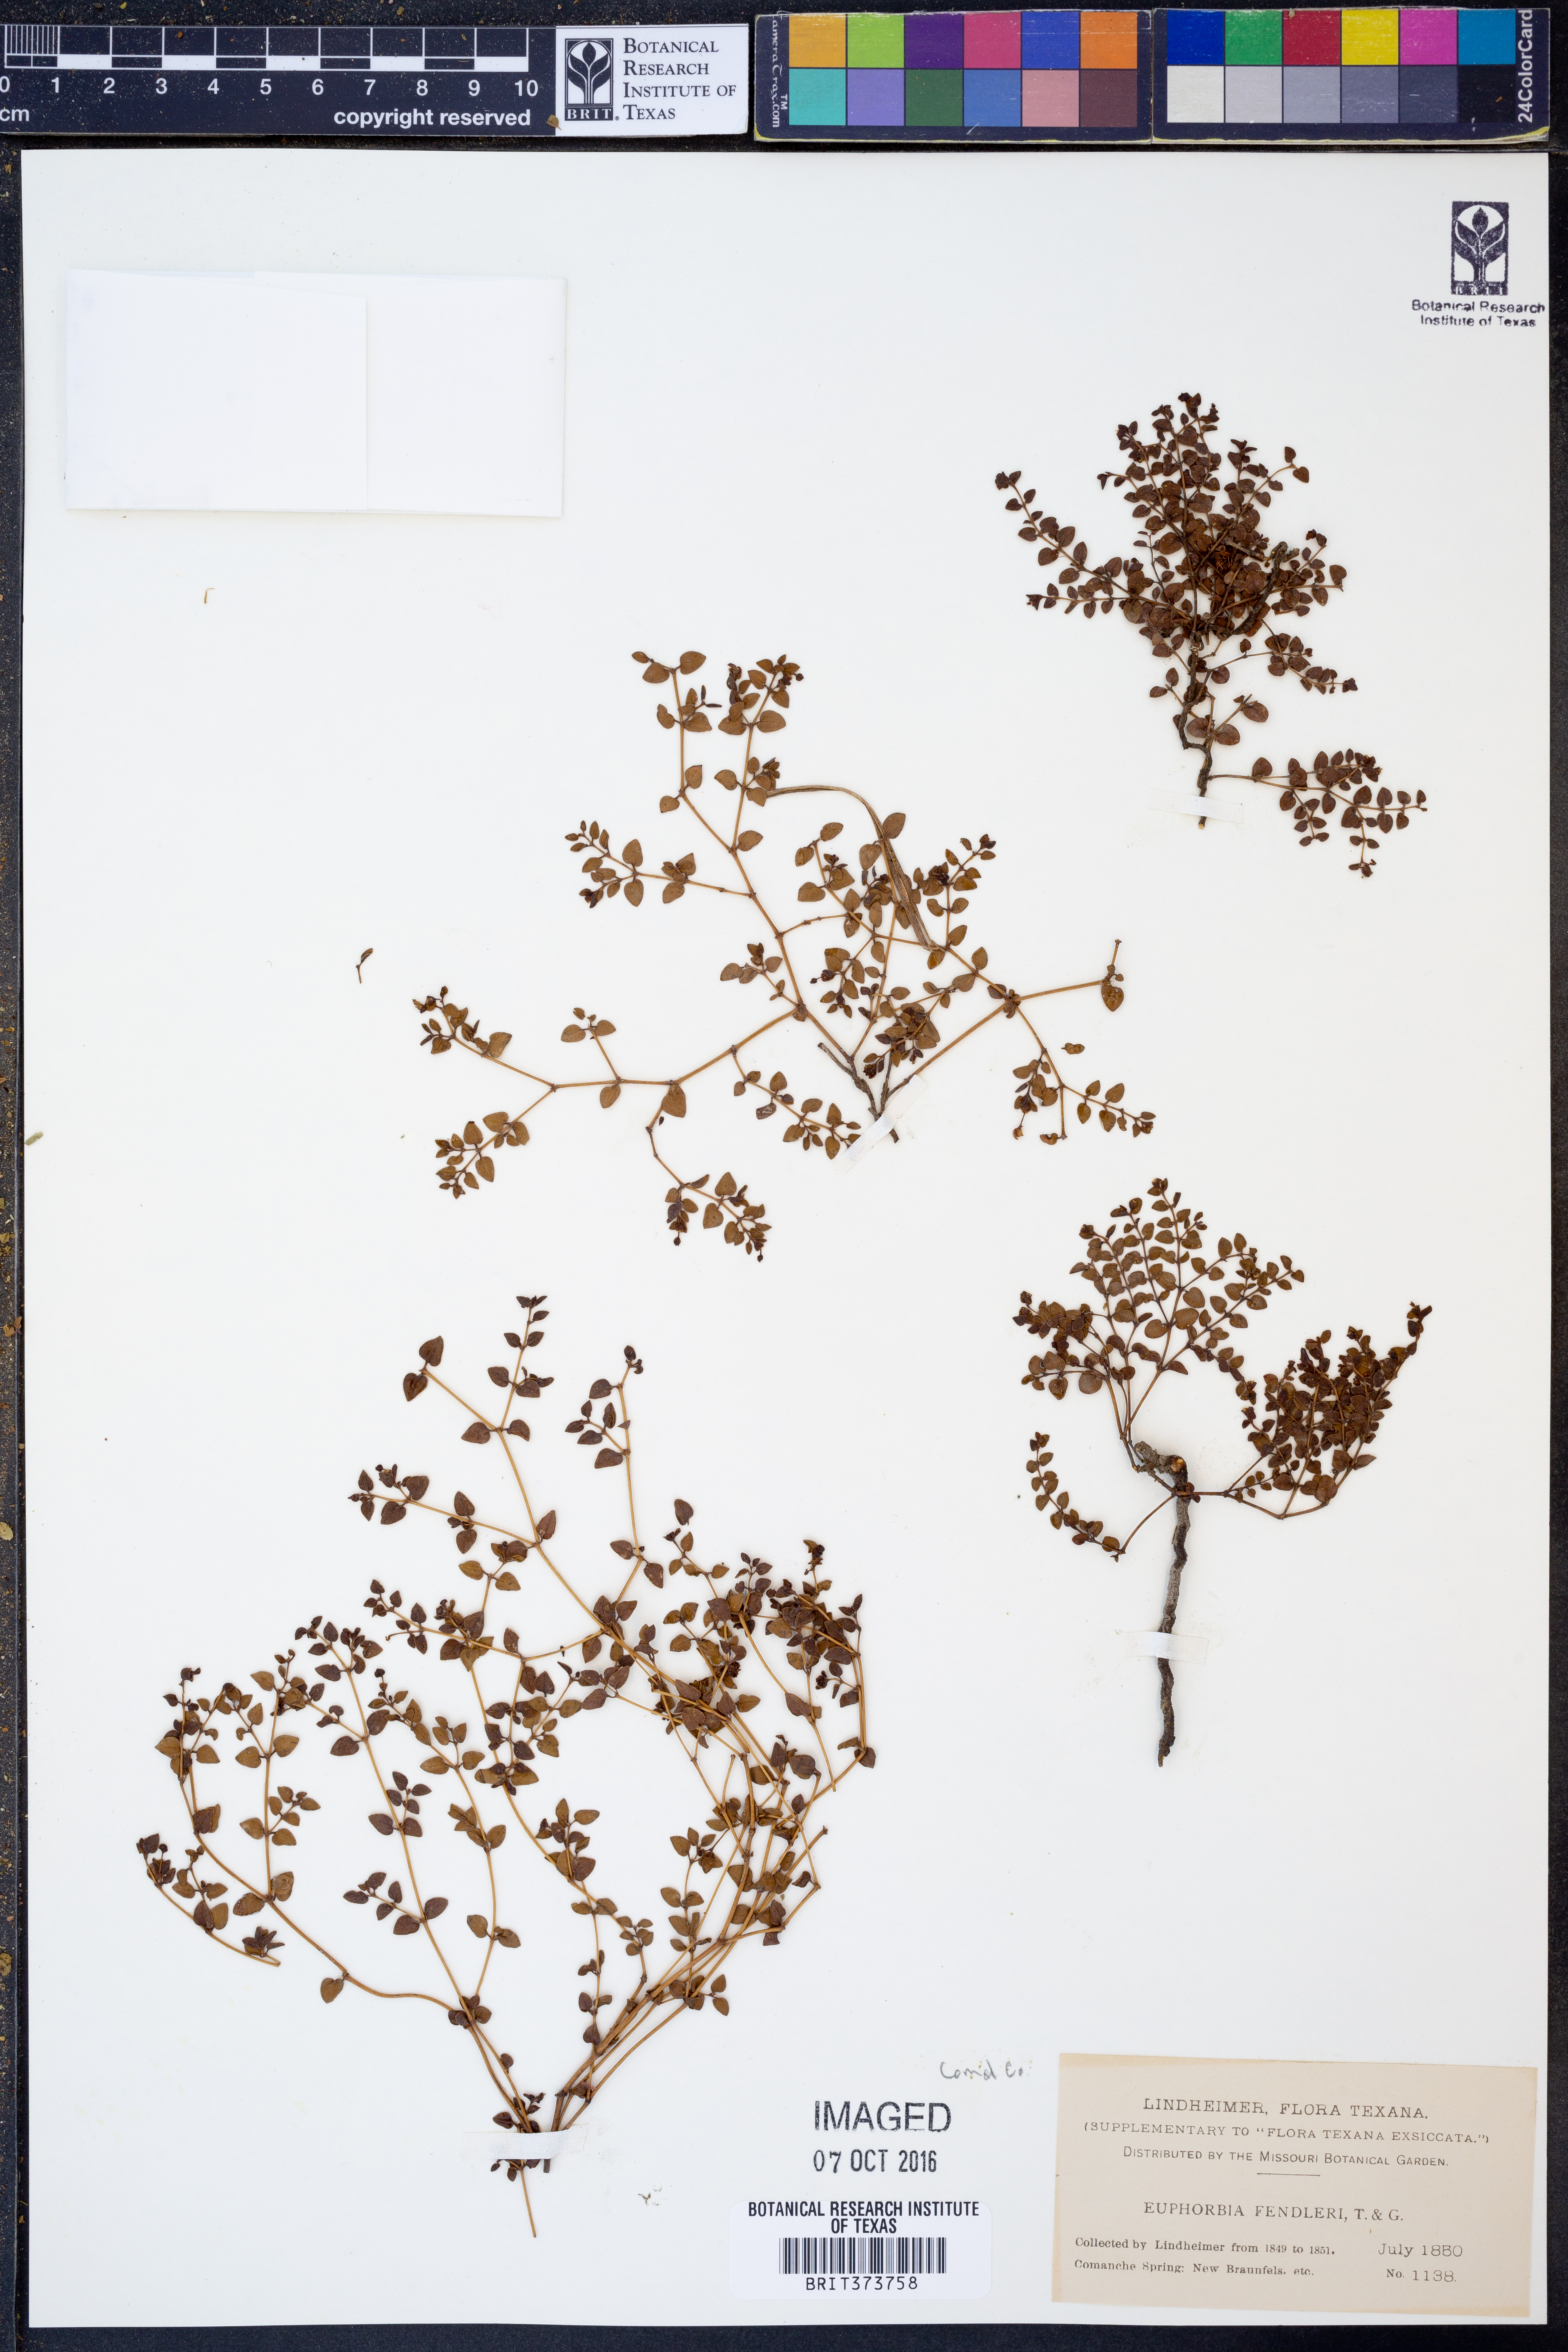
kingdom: Plantae
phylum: Tracheophyta
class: Magnoliopsida
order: Malpighiales
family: Euphorbiaceae
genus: Euphorbia
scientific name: Euphorbia fendleri
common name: Fendler's euphorbia
